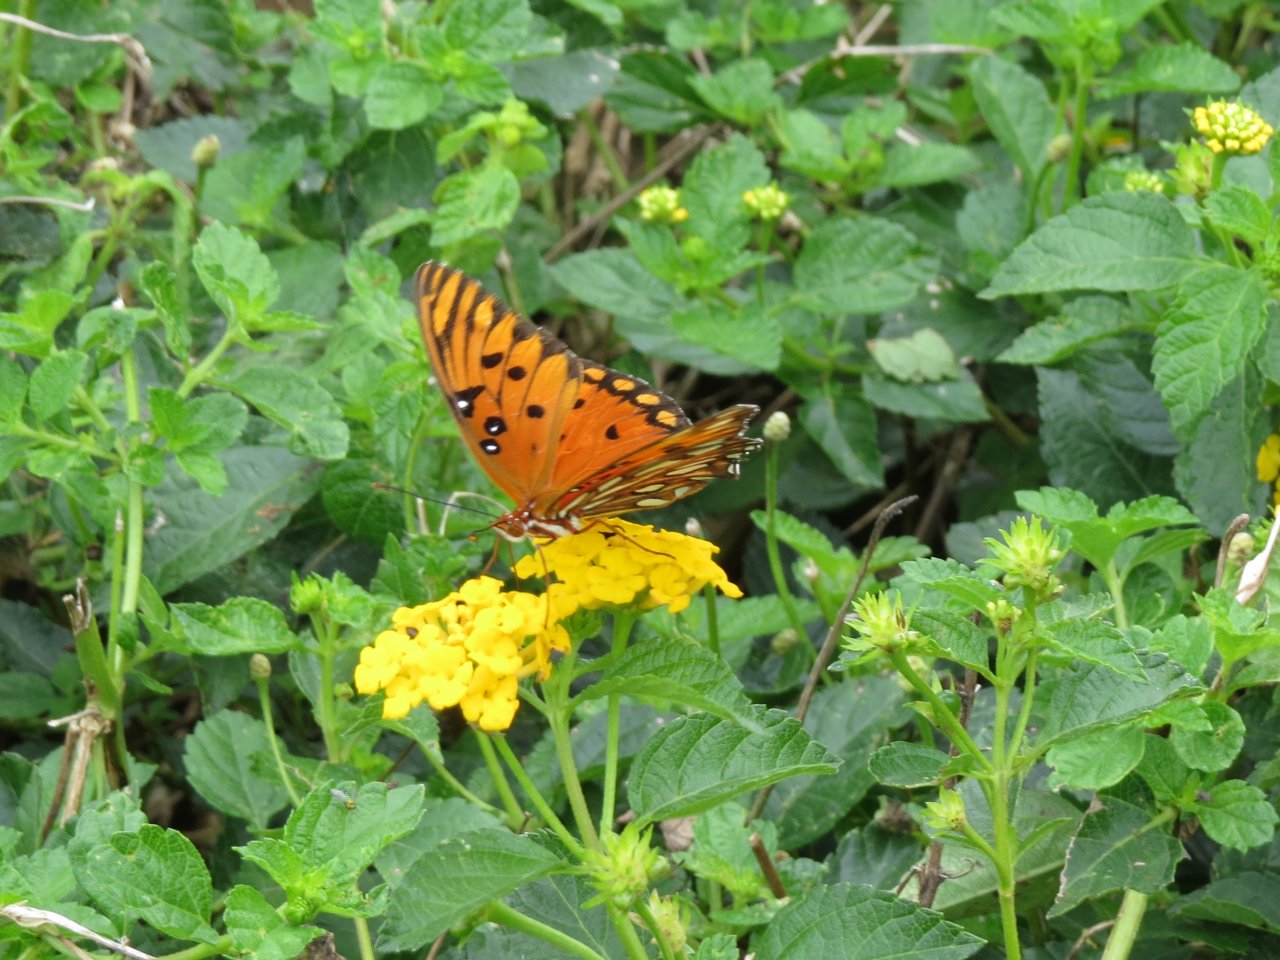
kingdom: Animalia
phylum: Arthropoda
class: Insecta
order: Lepidoptera
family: Nymphalidae
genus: Dione
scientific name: Dione vanillae
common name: Gulf Fritillary
